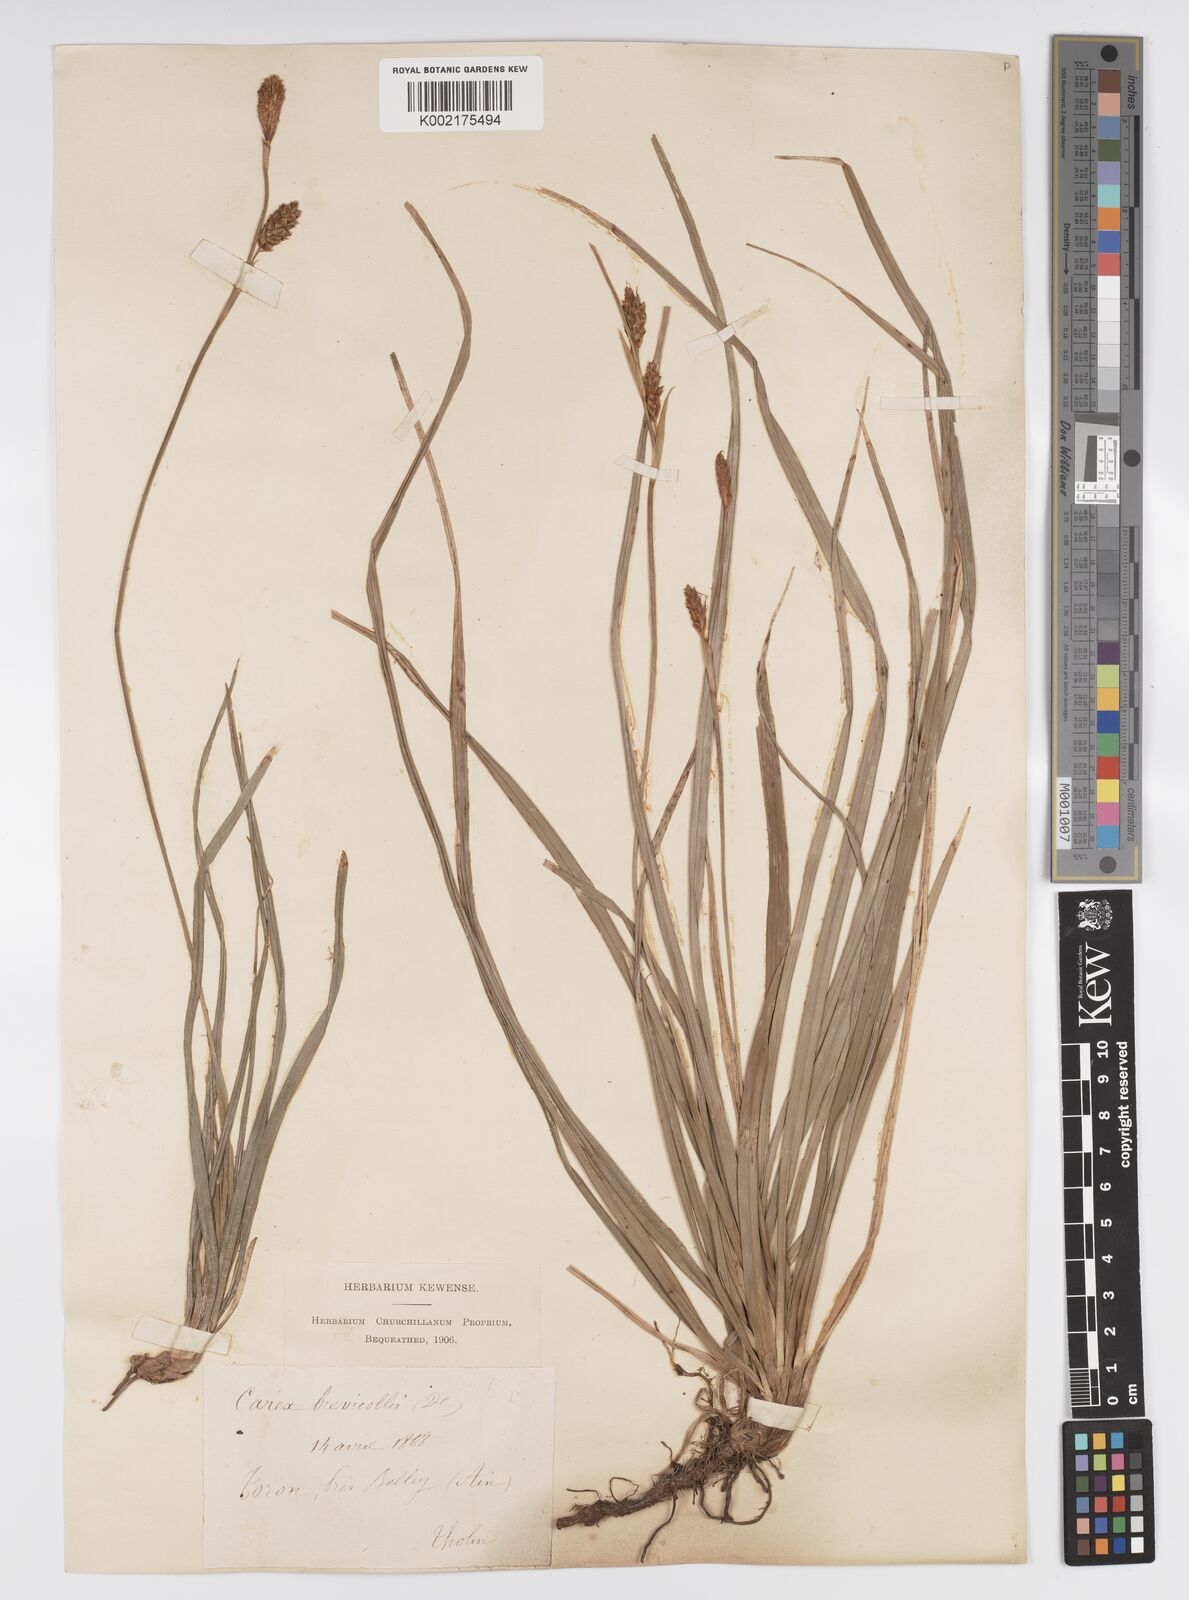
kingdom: Plantae
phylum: Tracheophyta
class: Liliopsida
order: Poales
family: Cyperaceae
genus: Carex
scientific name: Carex brevicollis
